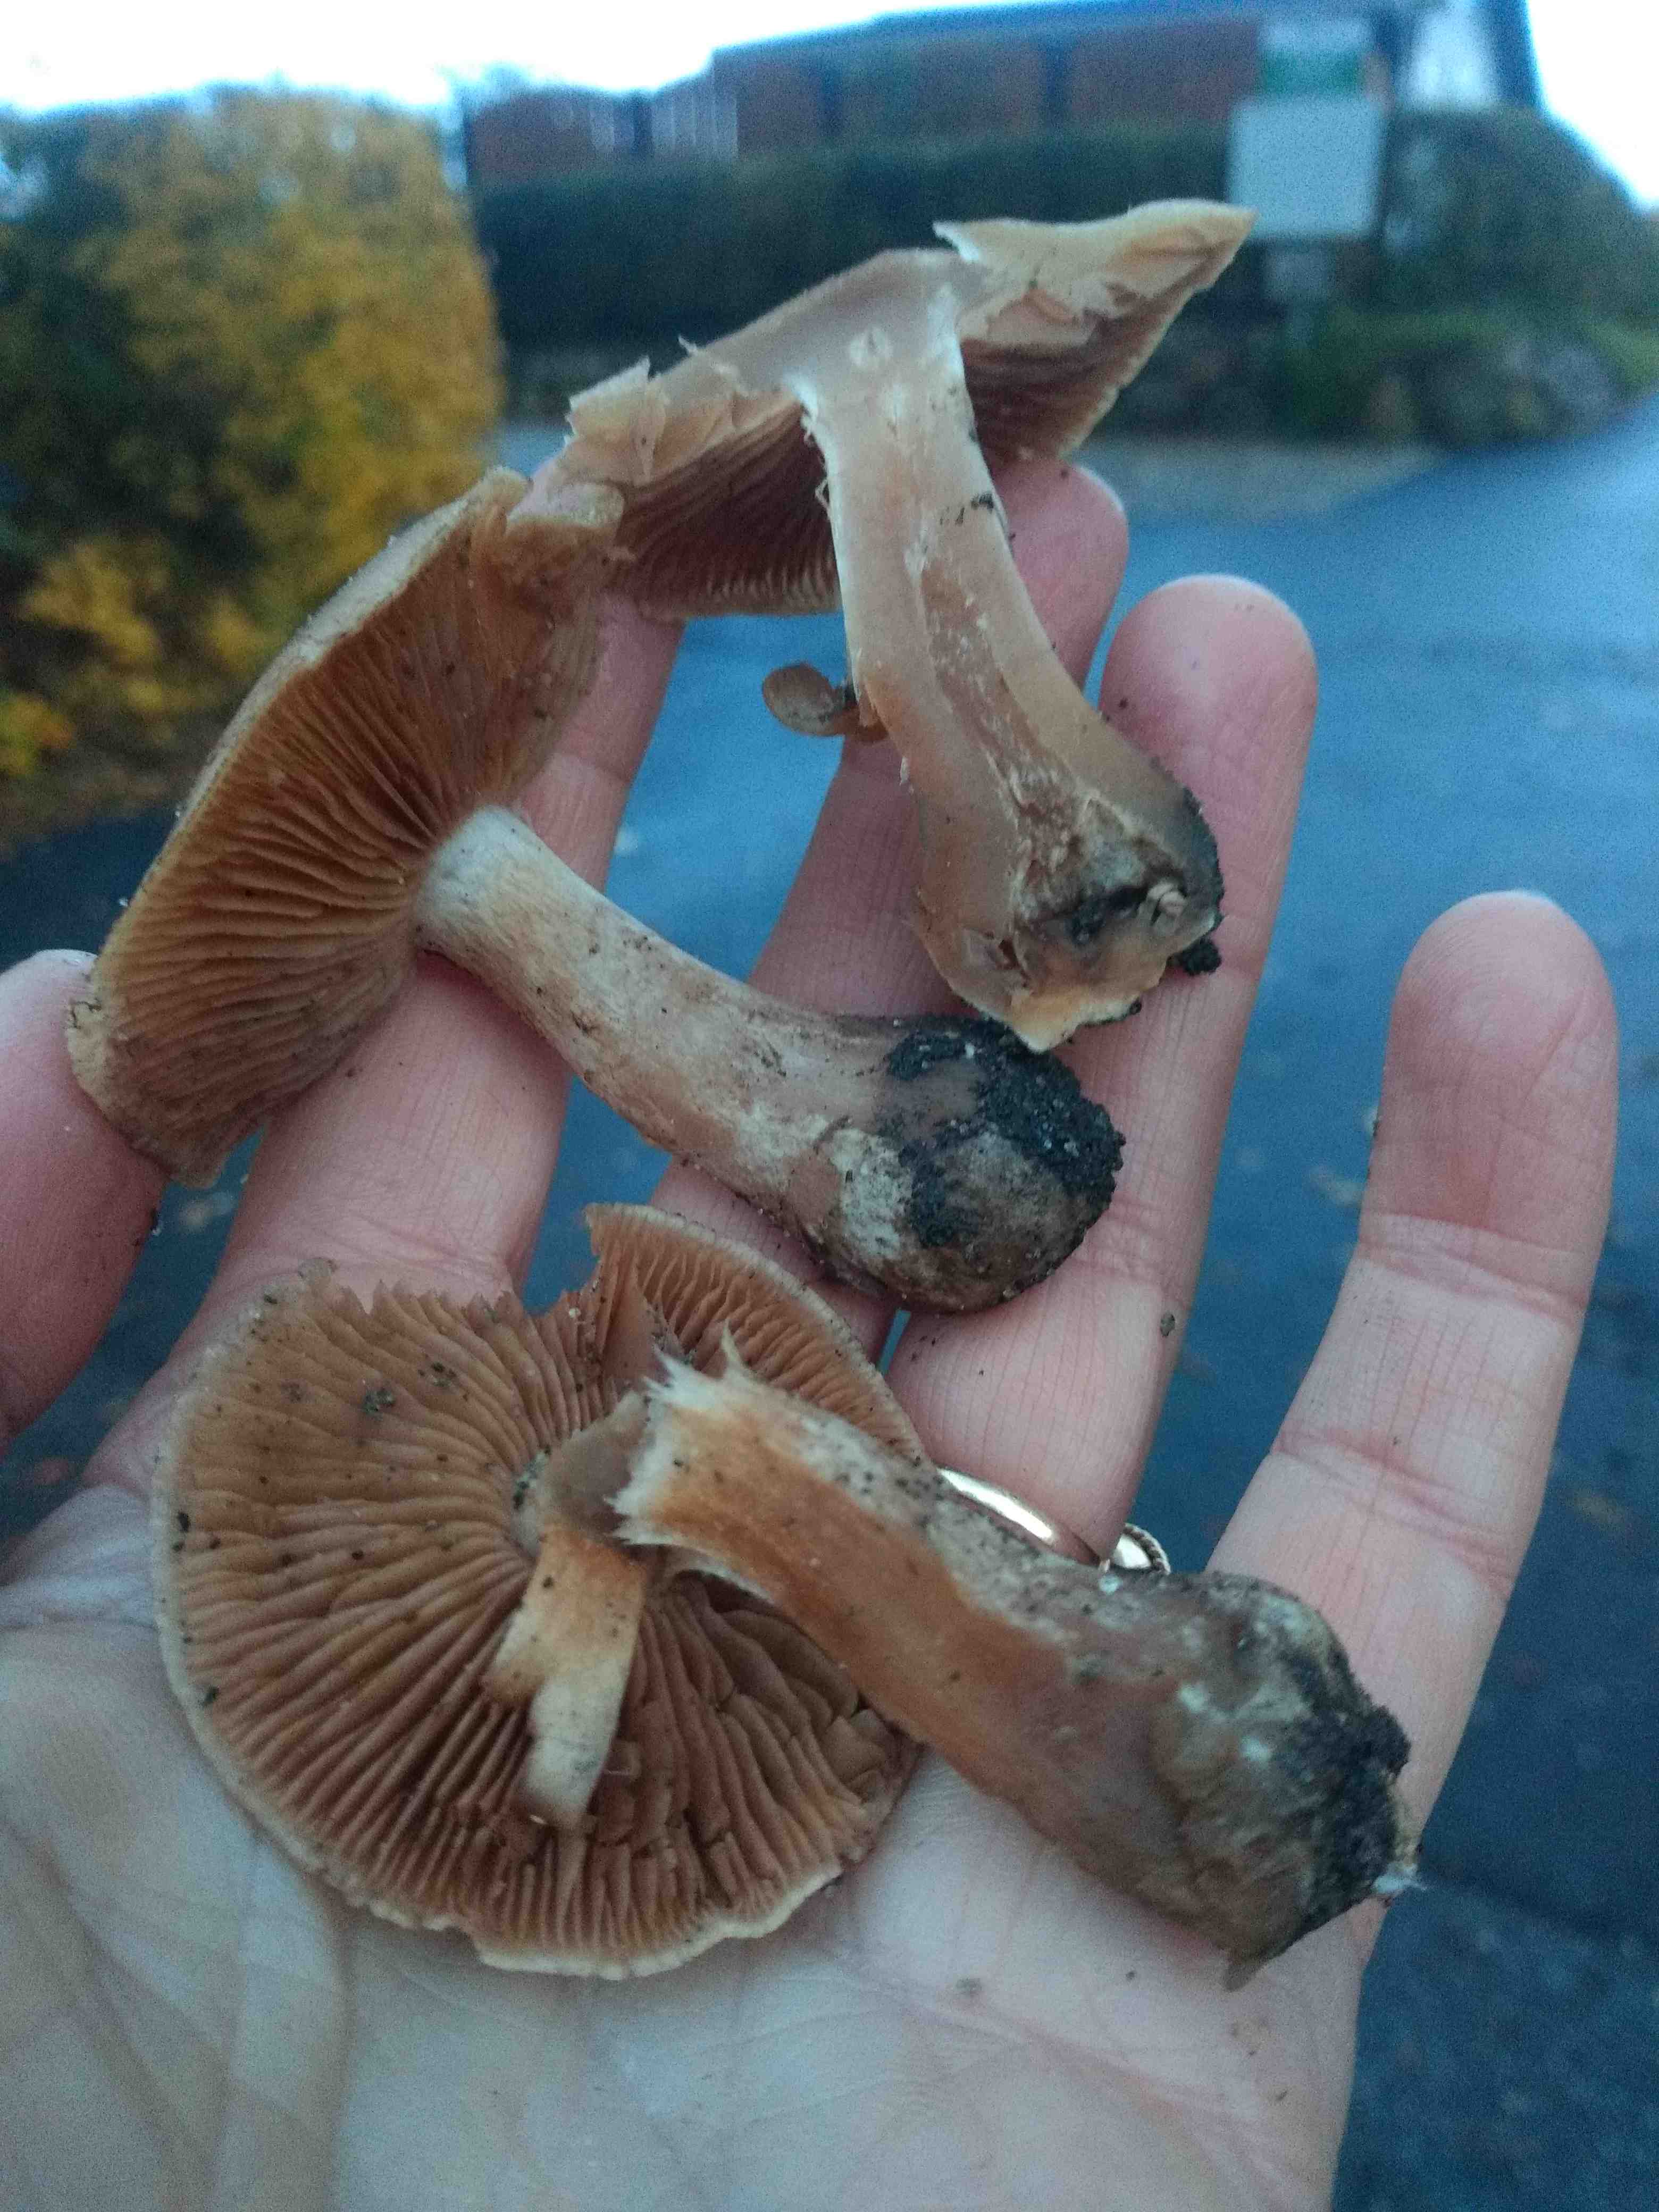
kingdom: Fungi
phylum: Basidiomycota
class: Agaricomycetes
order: Agaricales
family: Cortinariaceae
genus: Cortinarius
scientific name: Cortinarius
